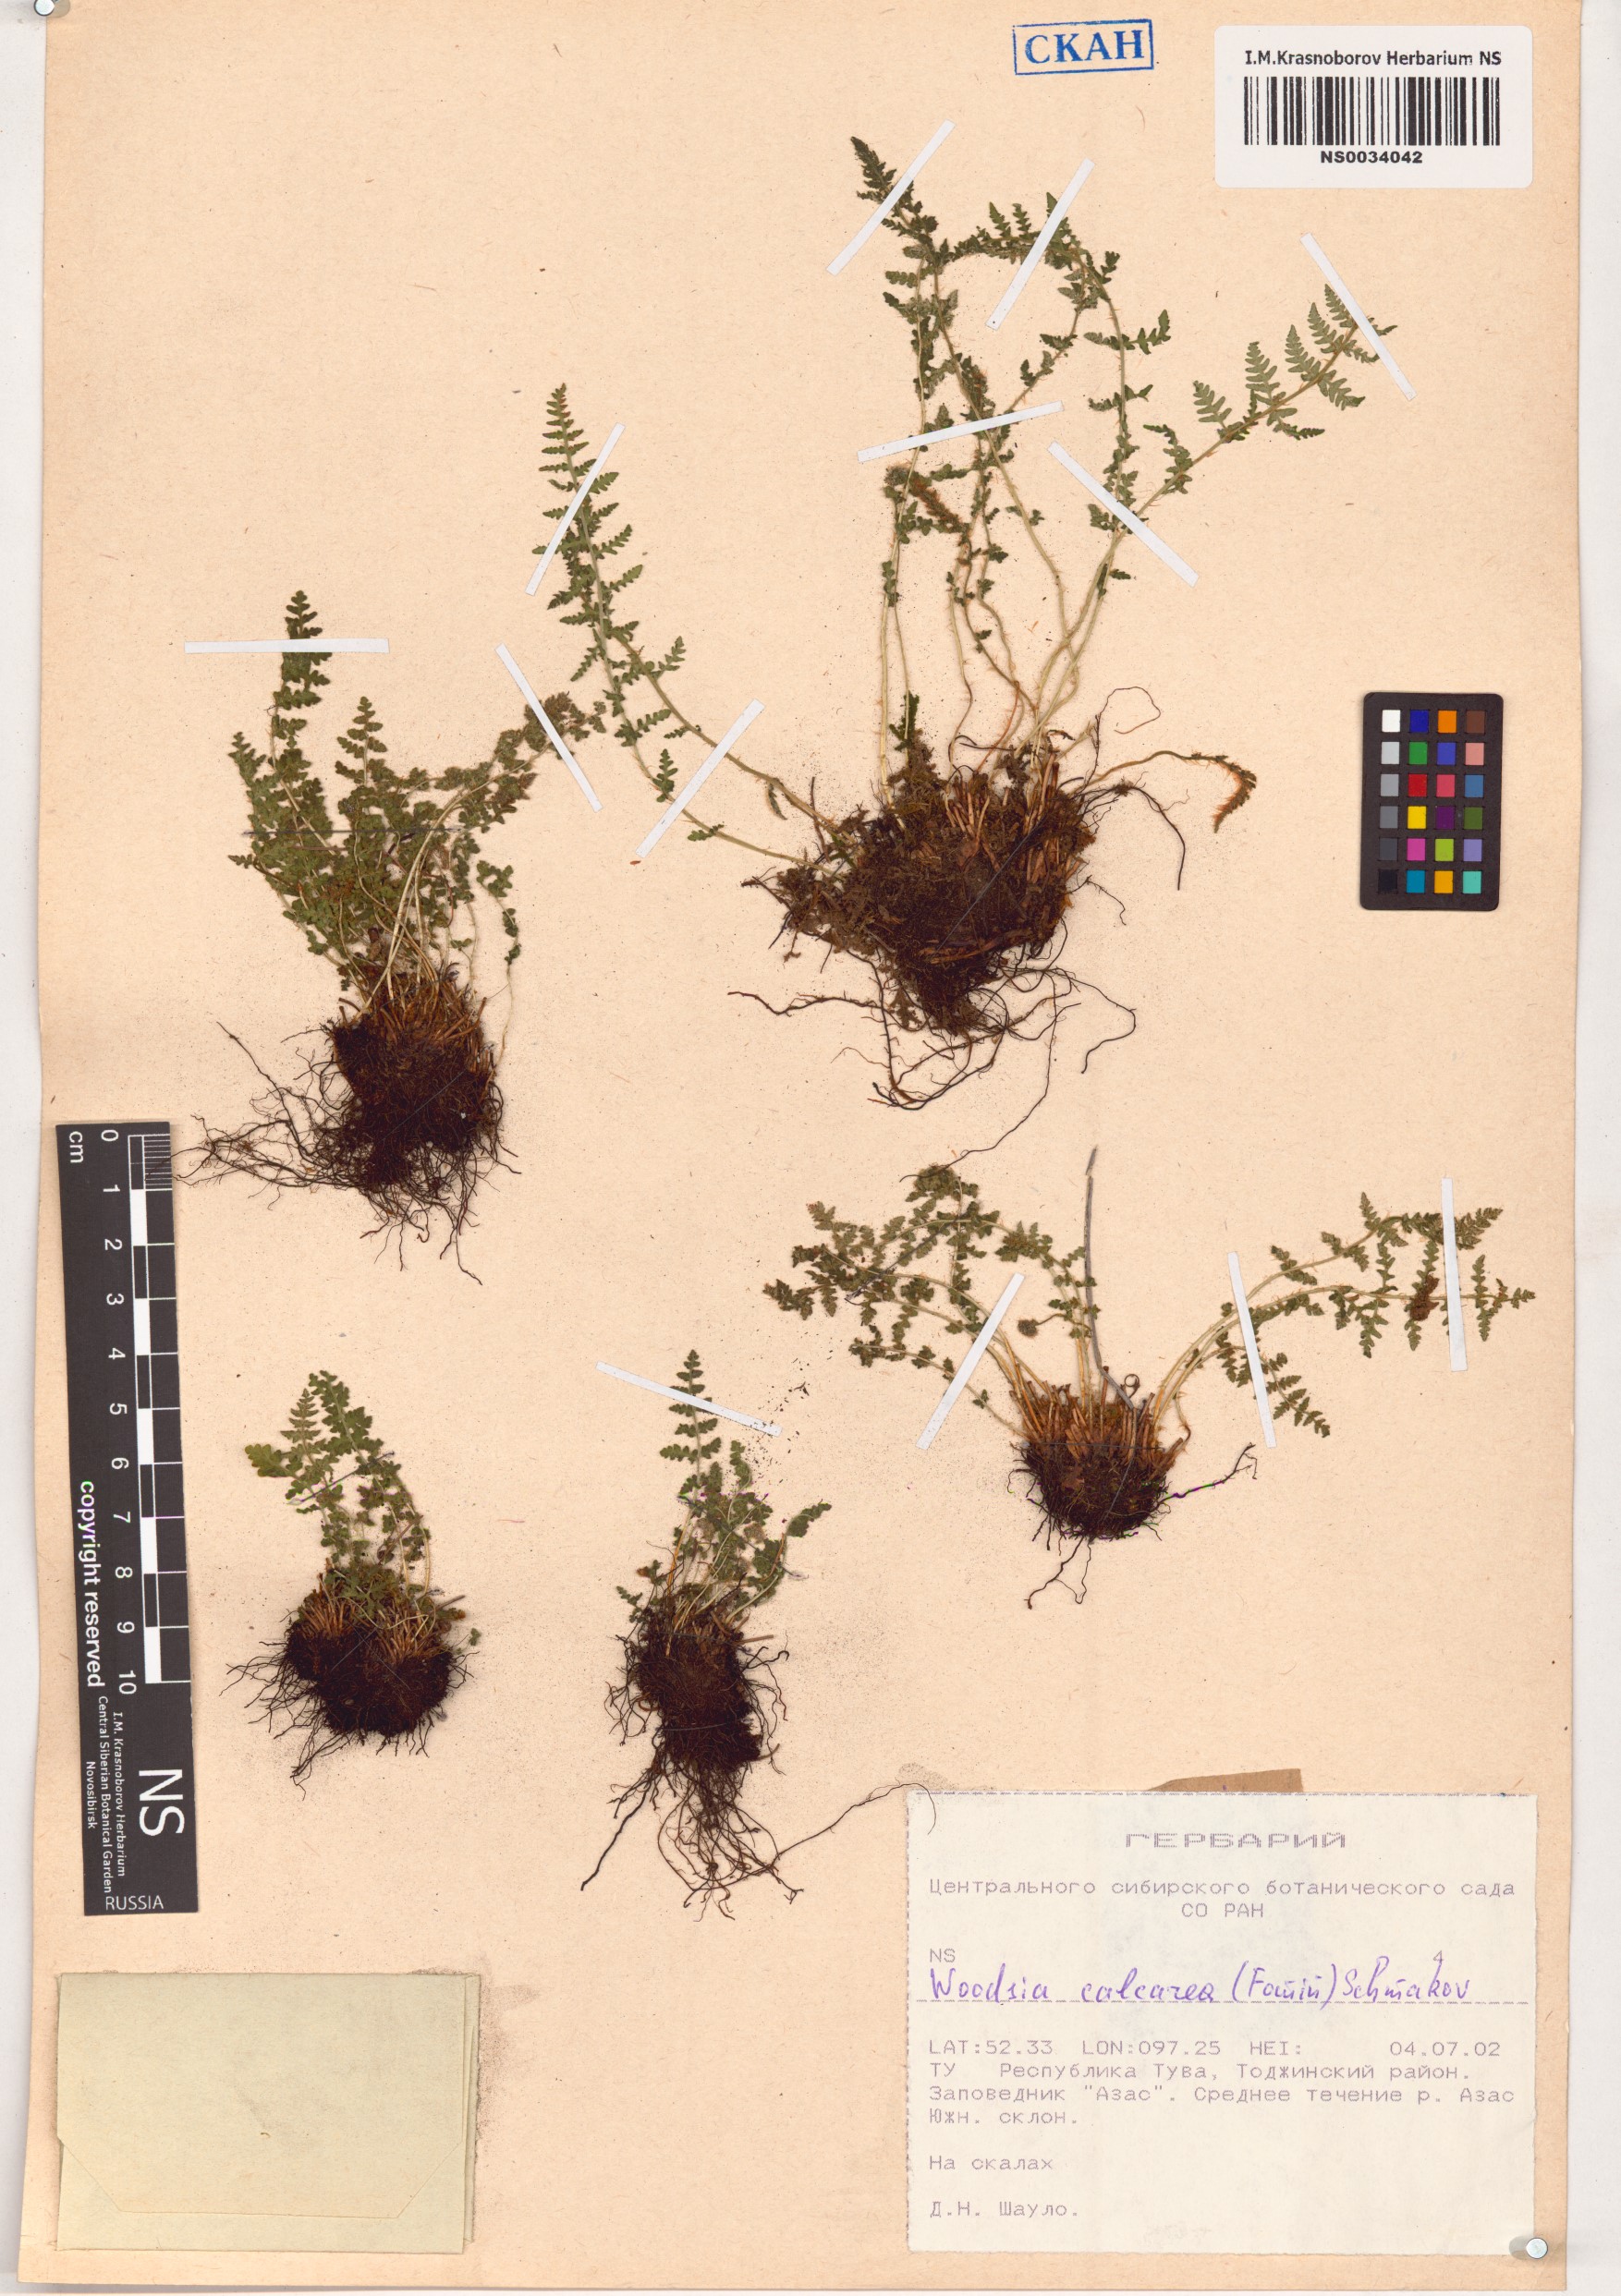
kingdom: Plantae
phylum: Tracheophyta
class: Polypodiopsida
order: Polypodiales
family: Woodsiaceae
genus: Woodsia
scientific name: Woodsia calcarea
